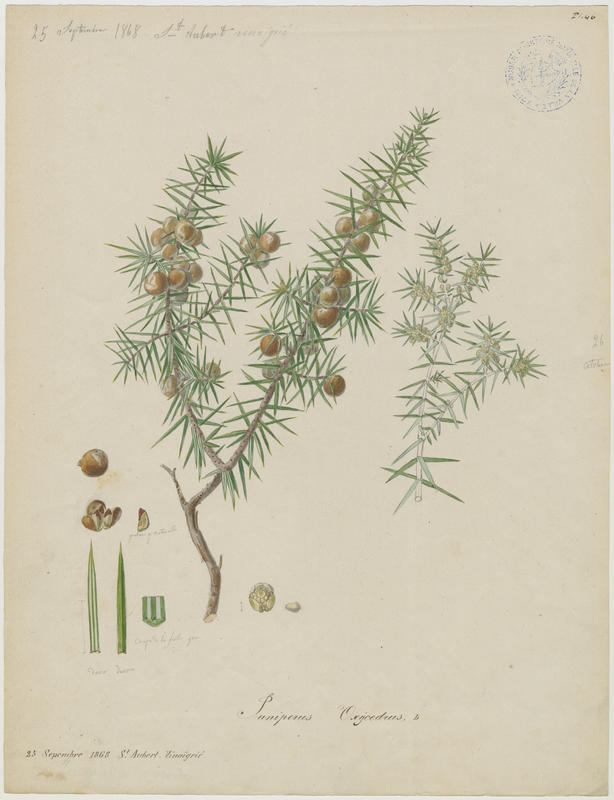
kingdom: Plantae
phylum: Tracheophyta
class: Pinopsida
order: Pinales
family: Cupressaceae
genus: Juniperus
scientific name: Juniperus oxycedrus
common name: Prickly juniper
